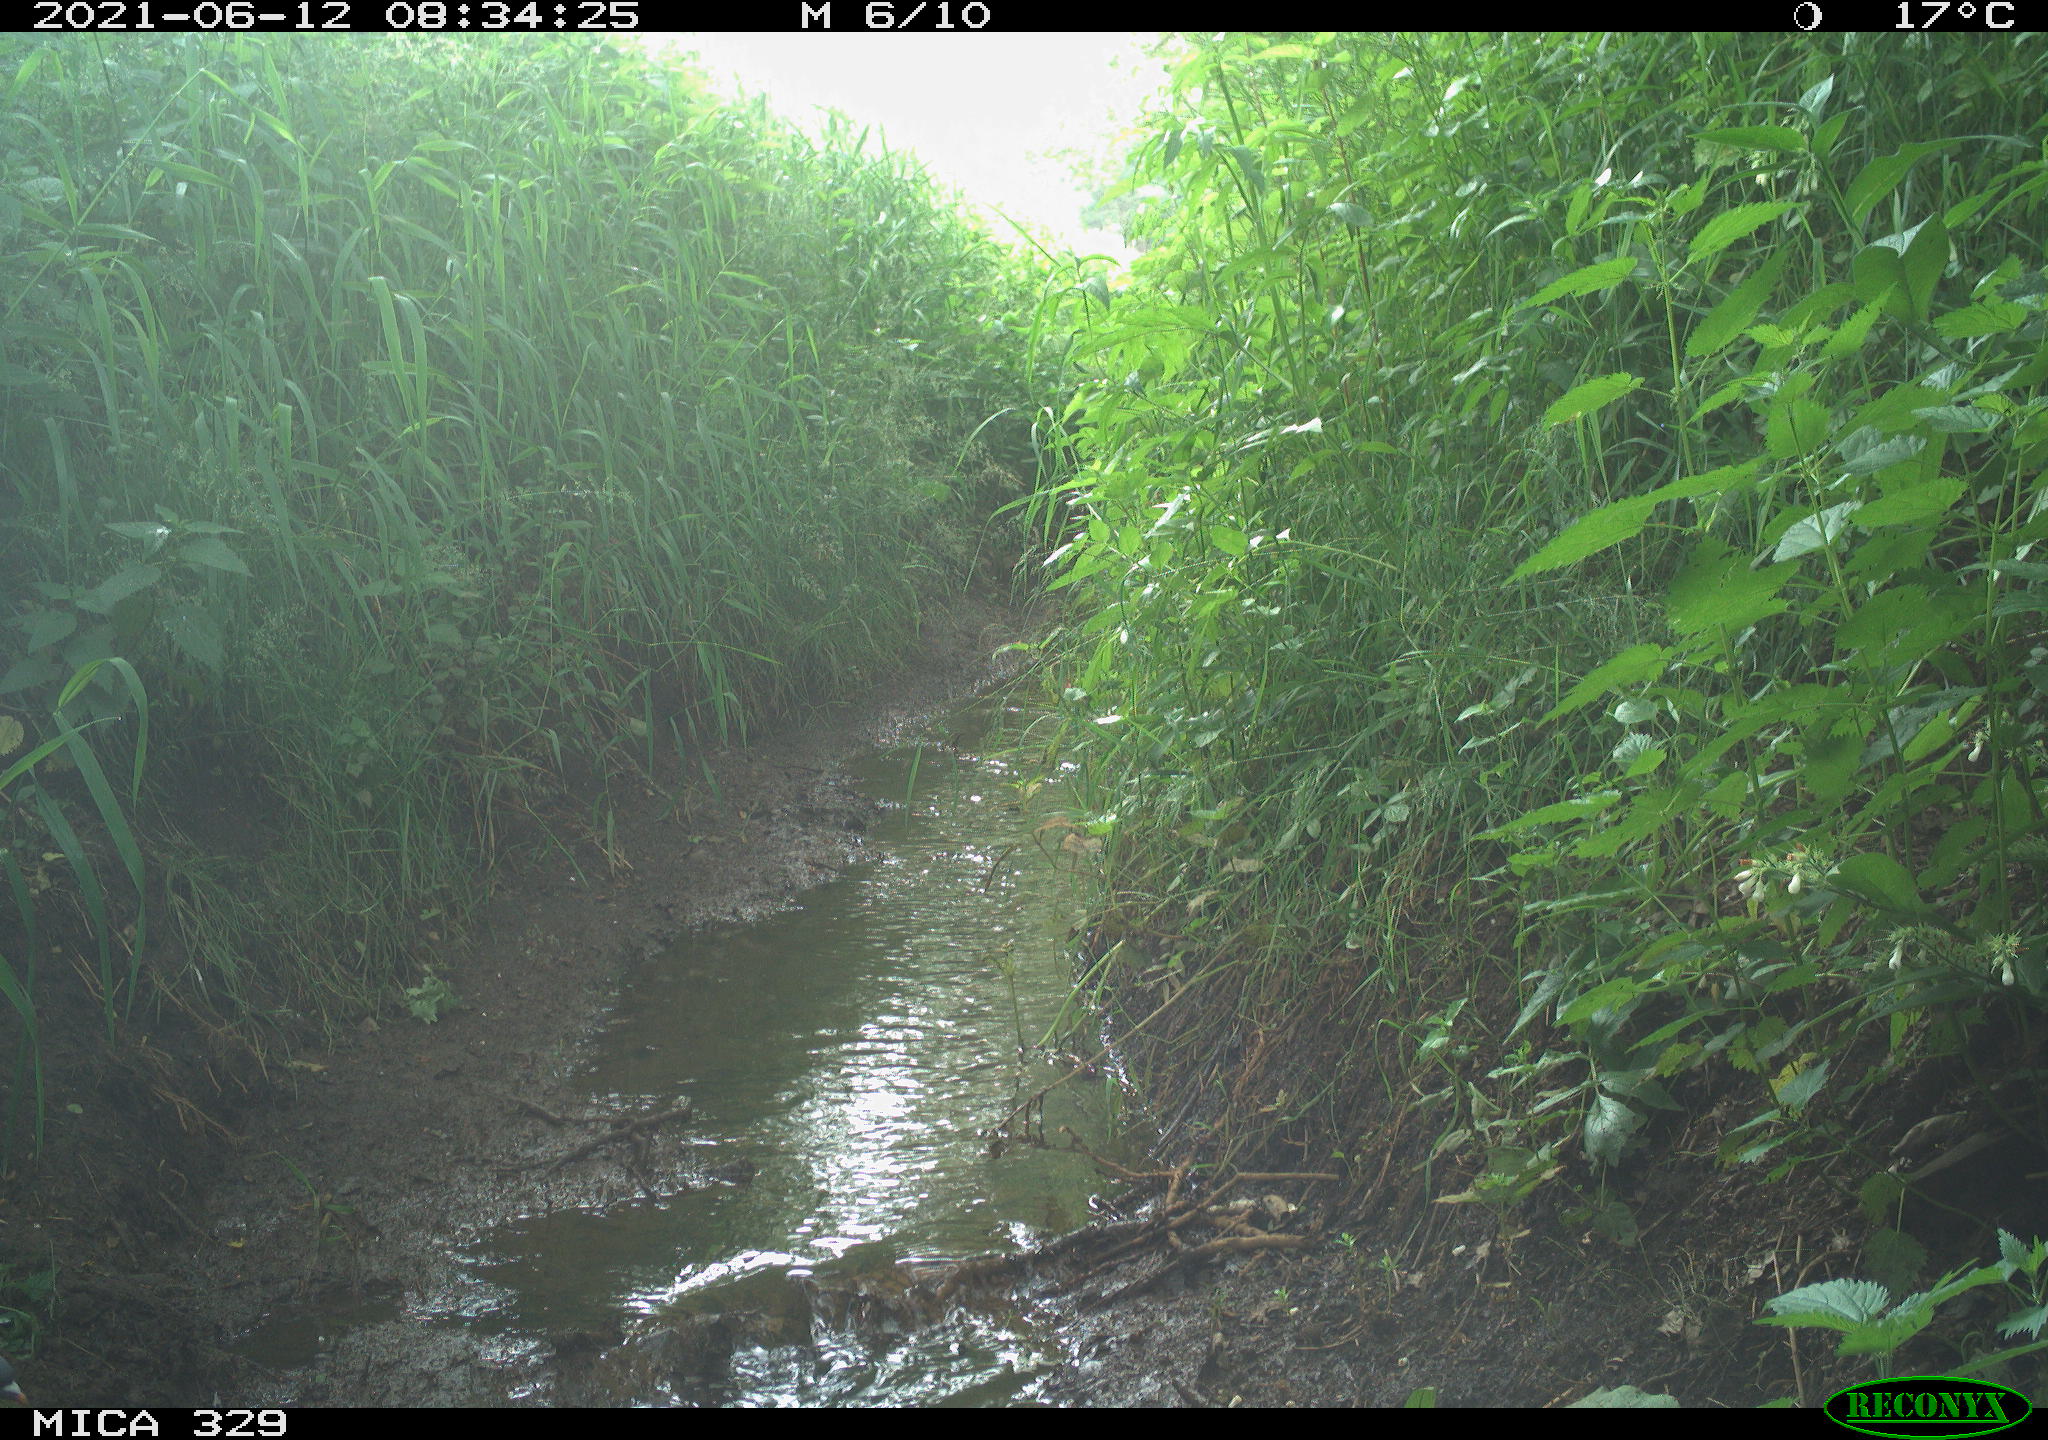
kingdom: Animalia
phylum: Chordata
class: Aves
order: Columbiformes
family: Columbidae
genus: Columba
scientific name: Columba palumbus
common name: Common wood pigeon
